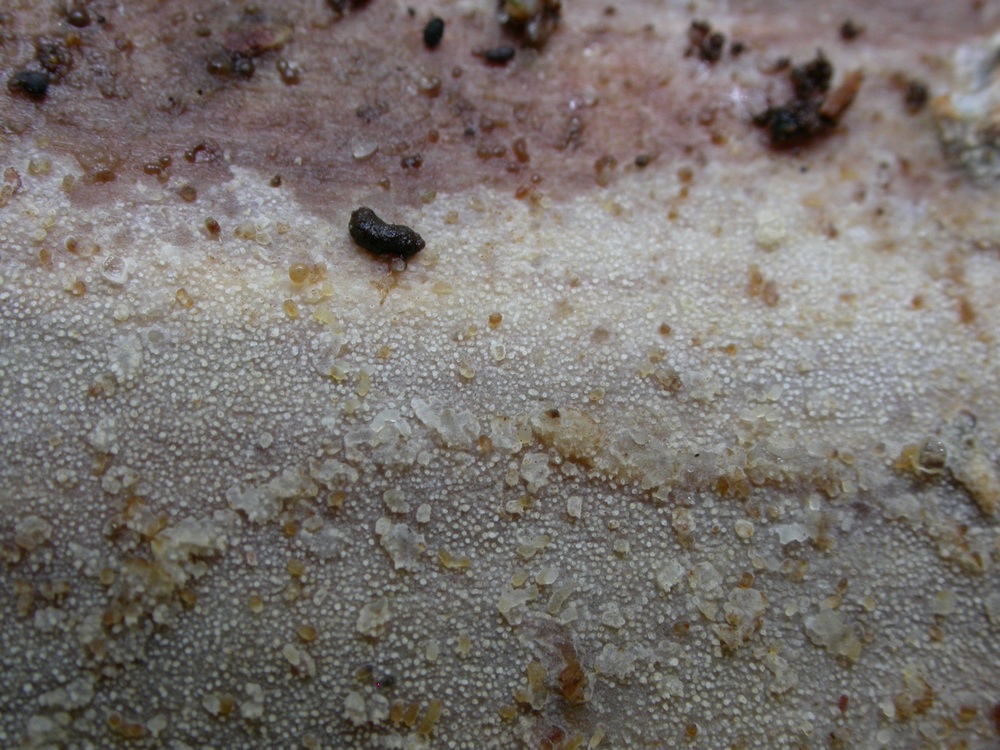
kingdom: Fungi
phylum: Basidiomycota
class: Agaricomycetes
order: Hymenochaetales
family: Rickenellaceae
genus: Resinicium
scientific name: Resinicium bicolor
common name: almindelig vokstand
